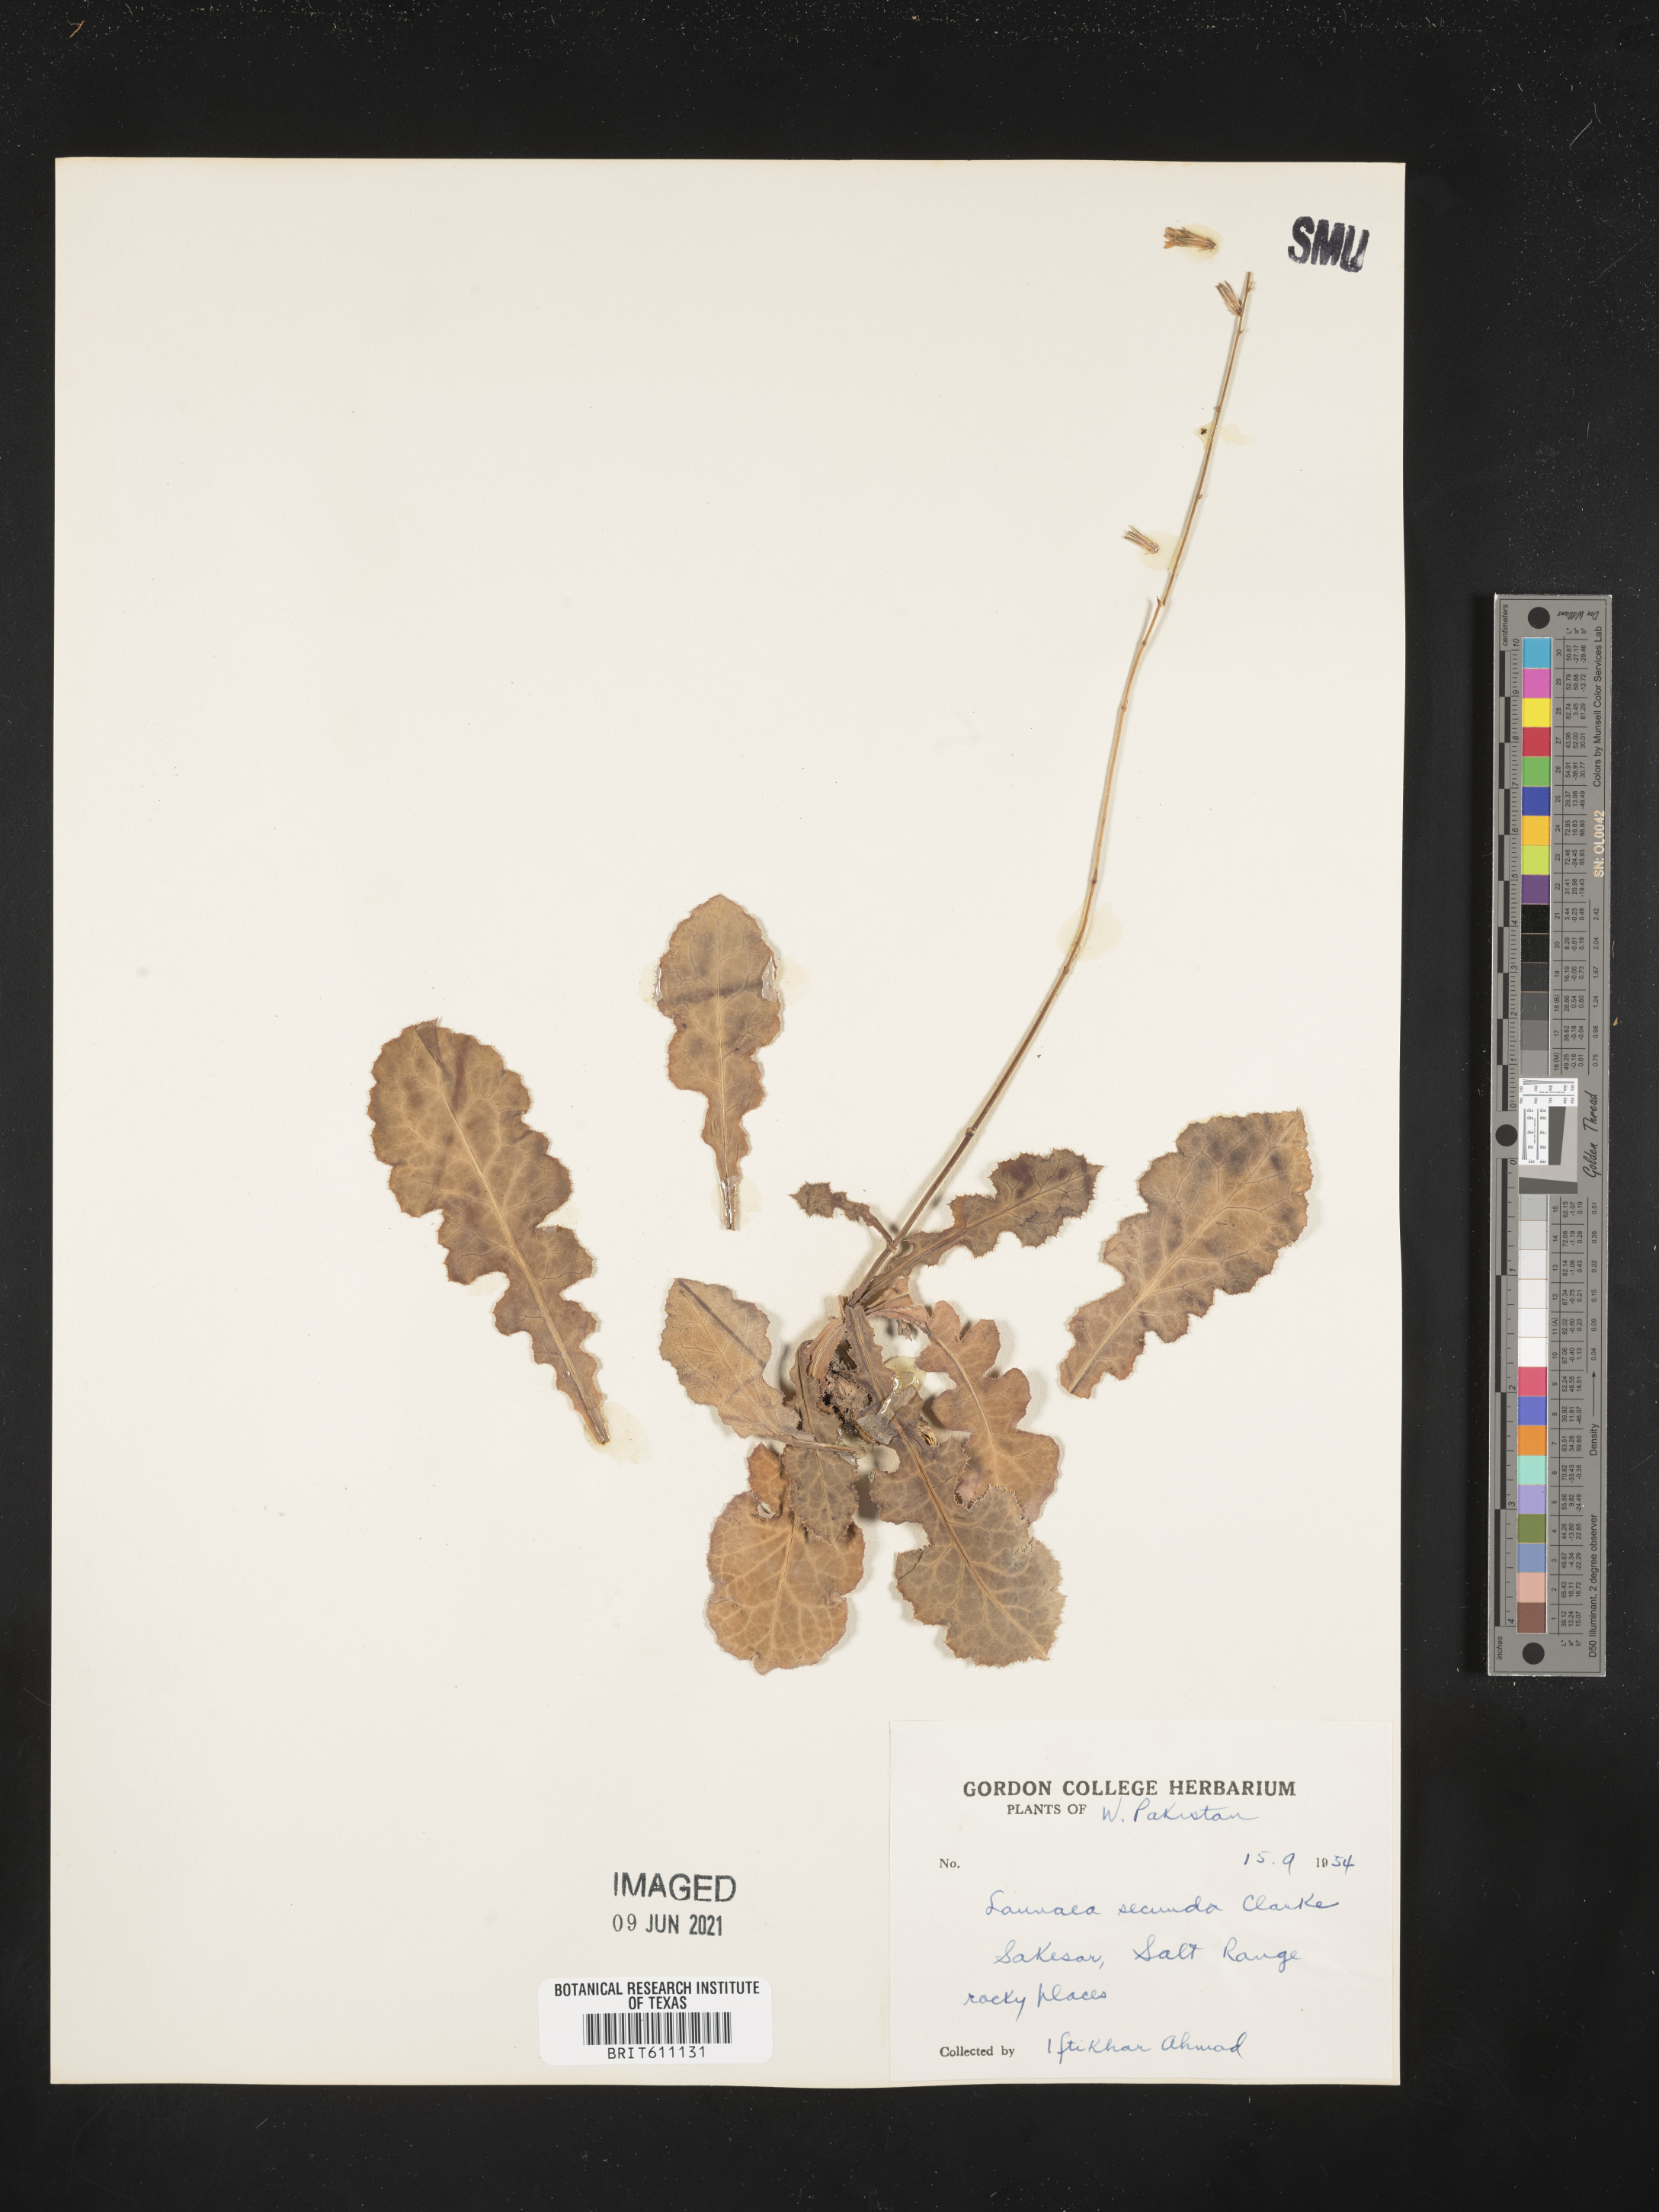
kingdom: Plantae
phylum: Tracheophyta
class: Magnoliopsida
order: Asterales
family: Asteraceae
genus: Launaea
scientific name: Launaea secunda
